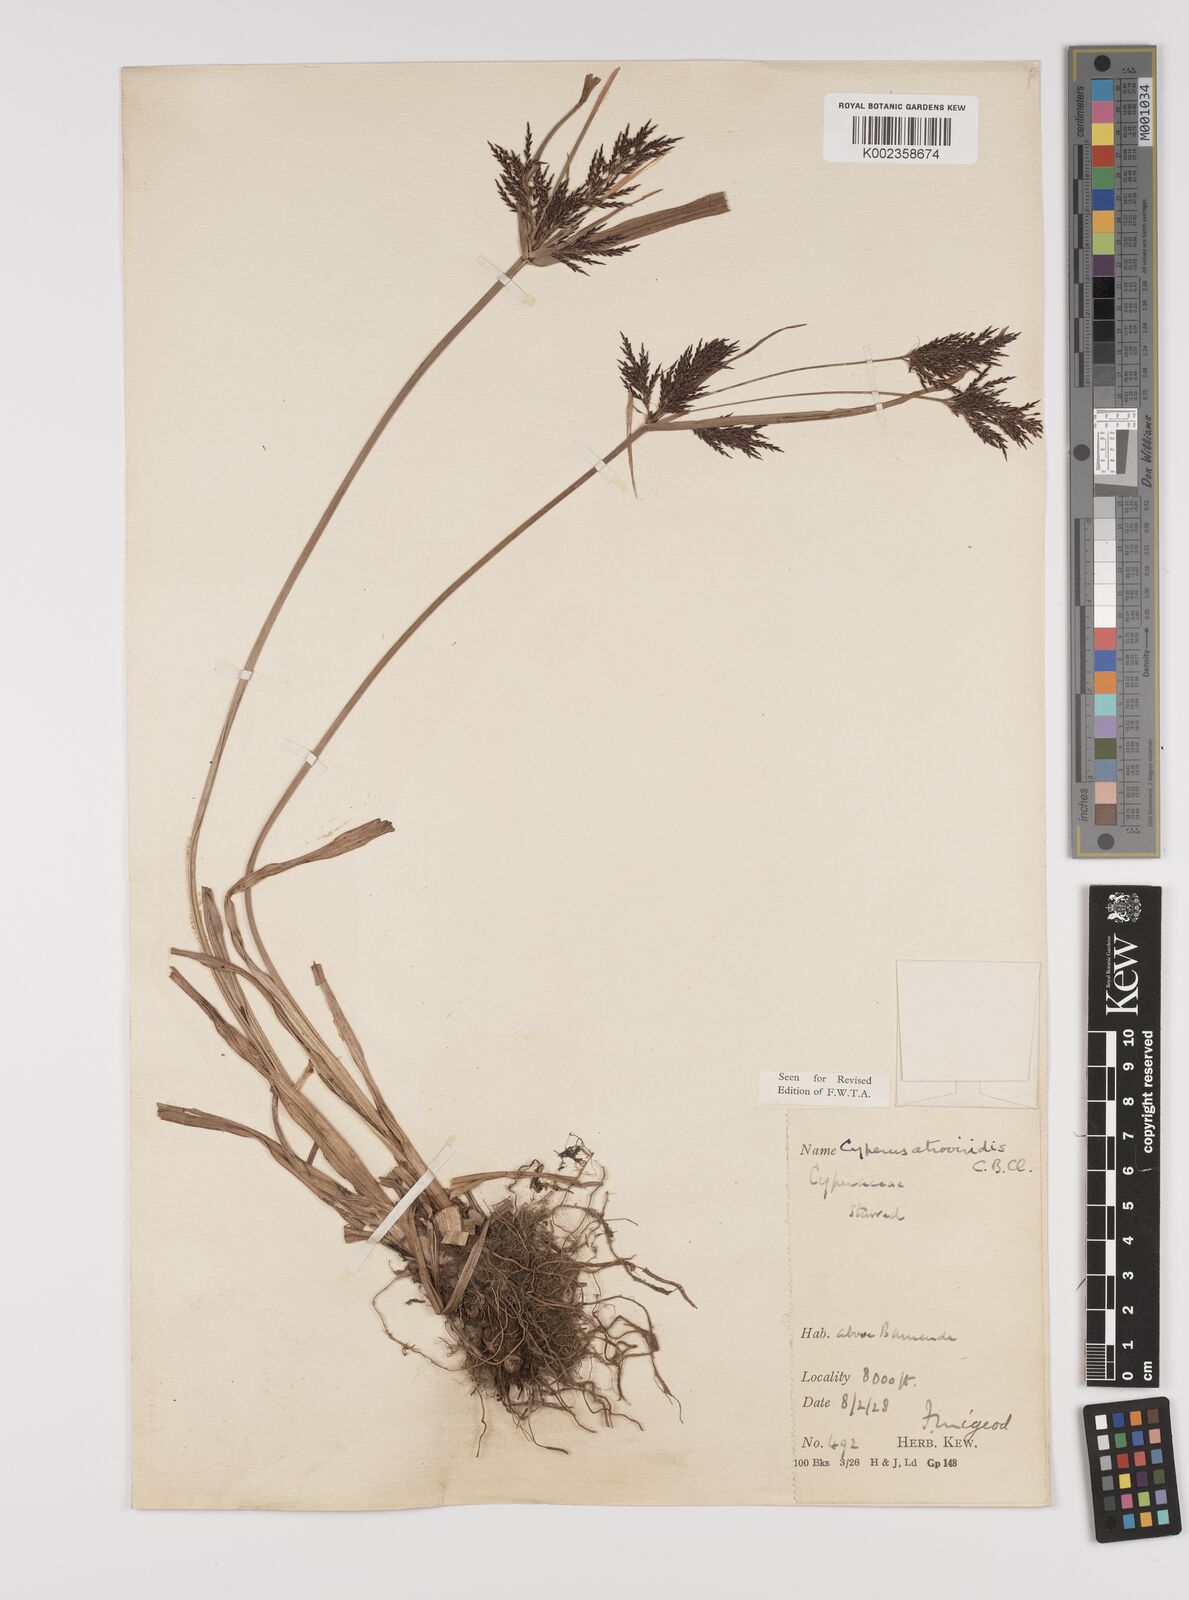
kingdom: Plantae
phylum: Tracheophyta
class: Liliopsida
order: Poales
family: Cyperaceae
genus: Cyperus
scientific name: Cyperus aterrimus
